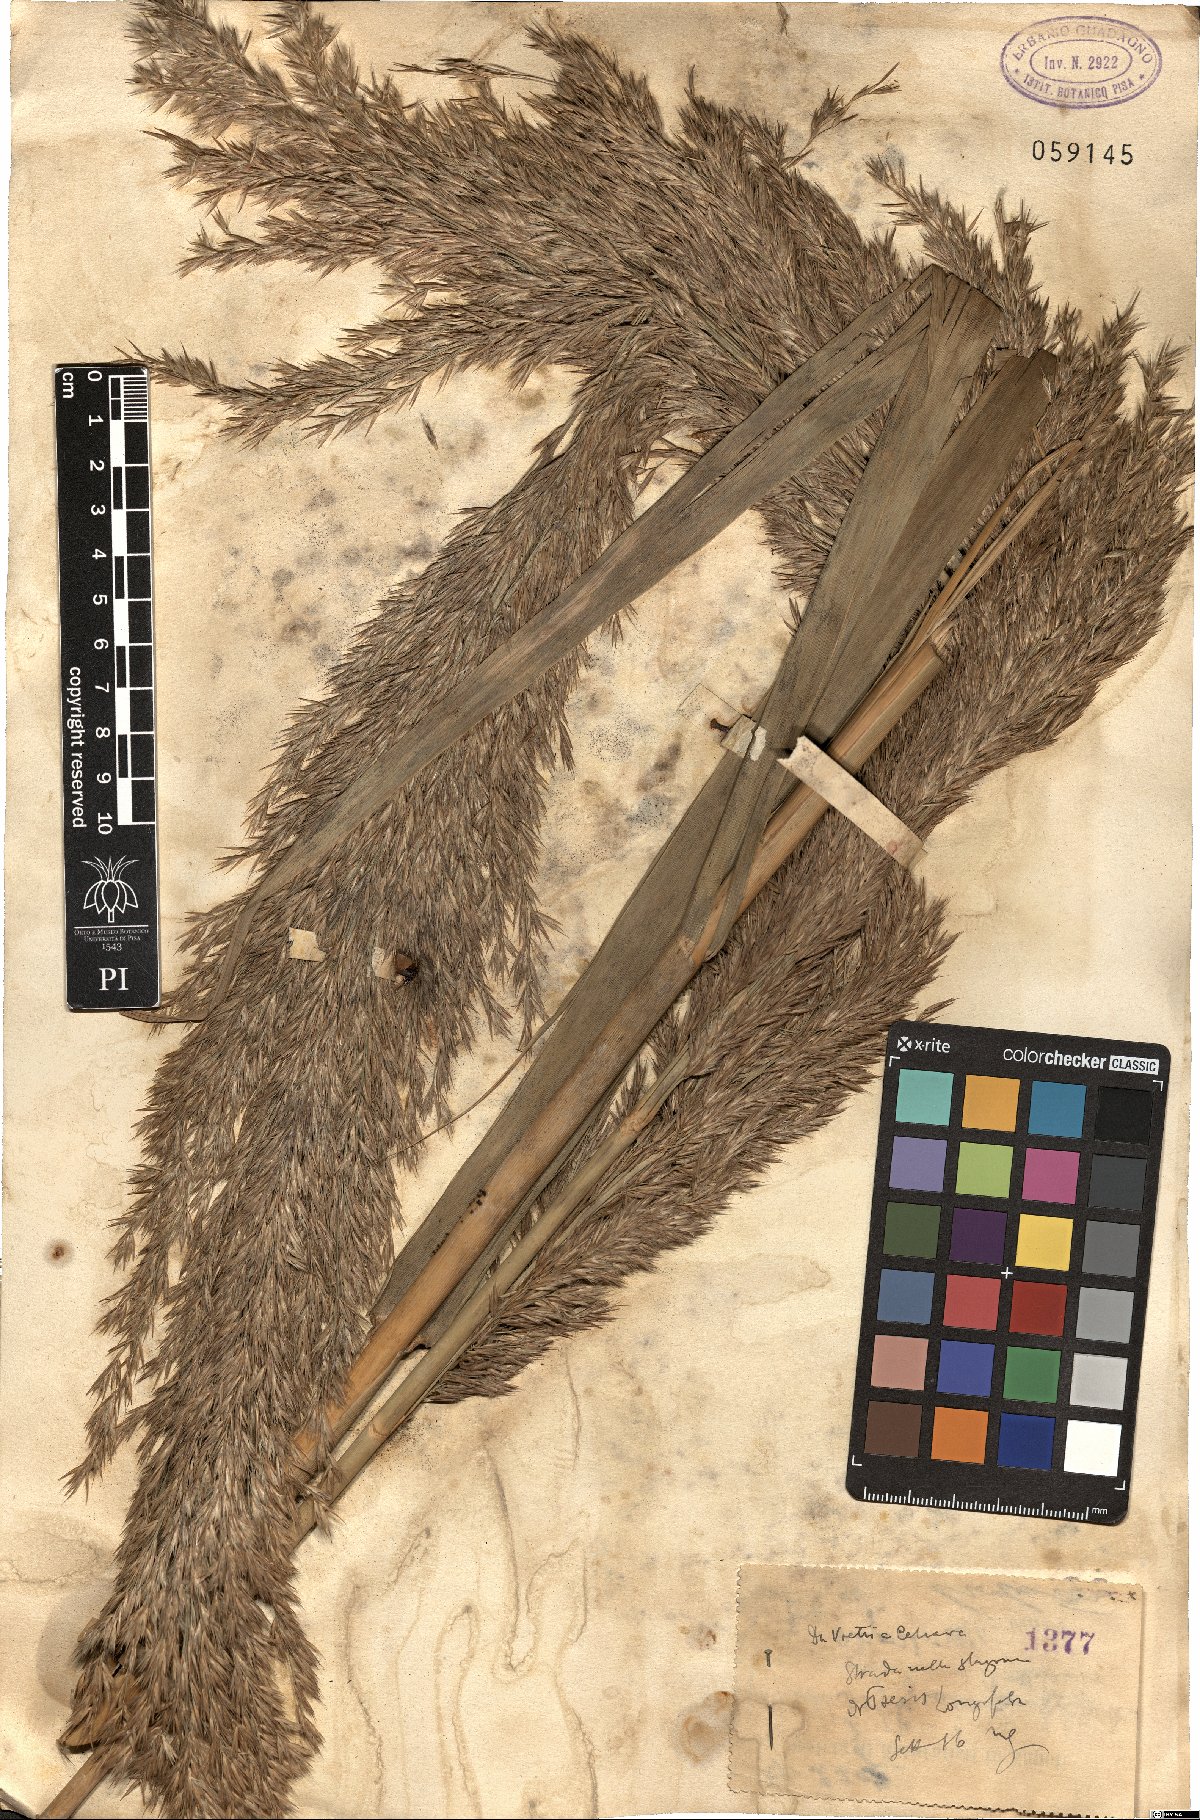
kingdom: Plantae
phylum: Tracheophyta
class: Liliopsida
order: Poales
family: Poaceae
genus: Arthrostylidium
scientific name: Arthrostylidium longiflorum
